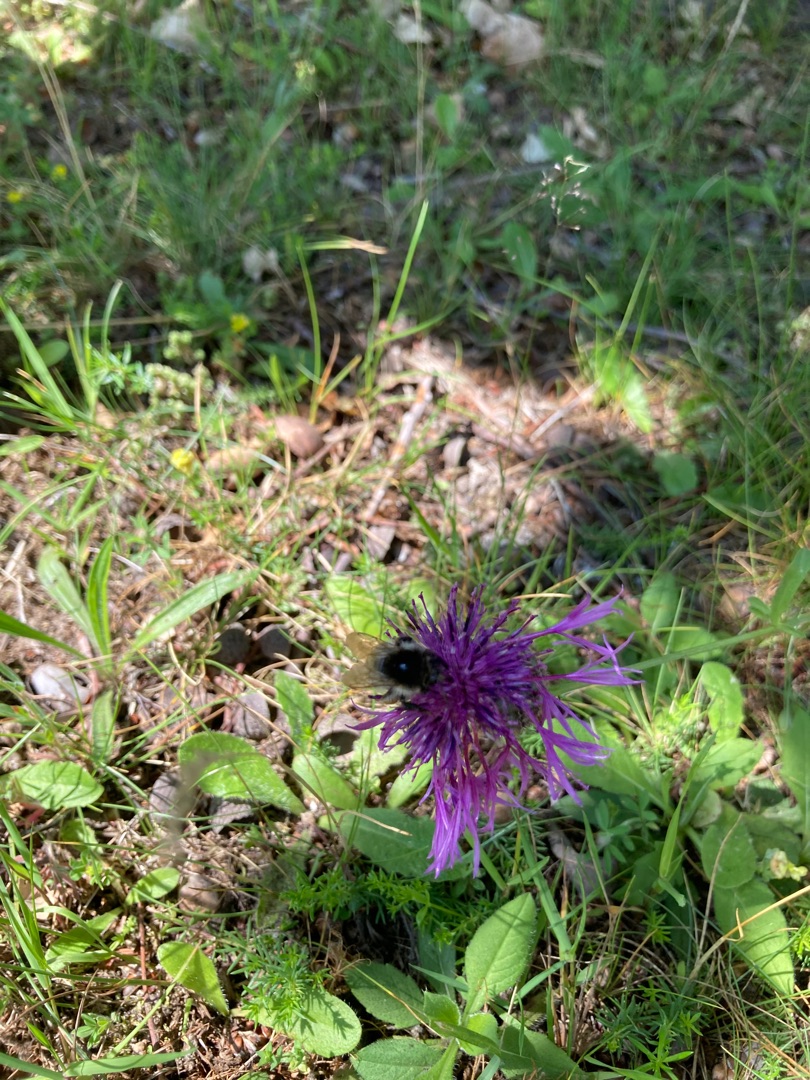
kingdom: Plantae
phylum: Tracheophyta
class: Magnoliopsida
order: Asterales
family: Asteraceae
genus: Centaurea
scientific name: Centaurea scabiosa
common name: Stor knopurt
